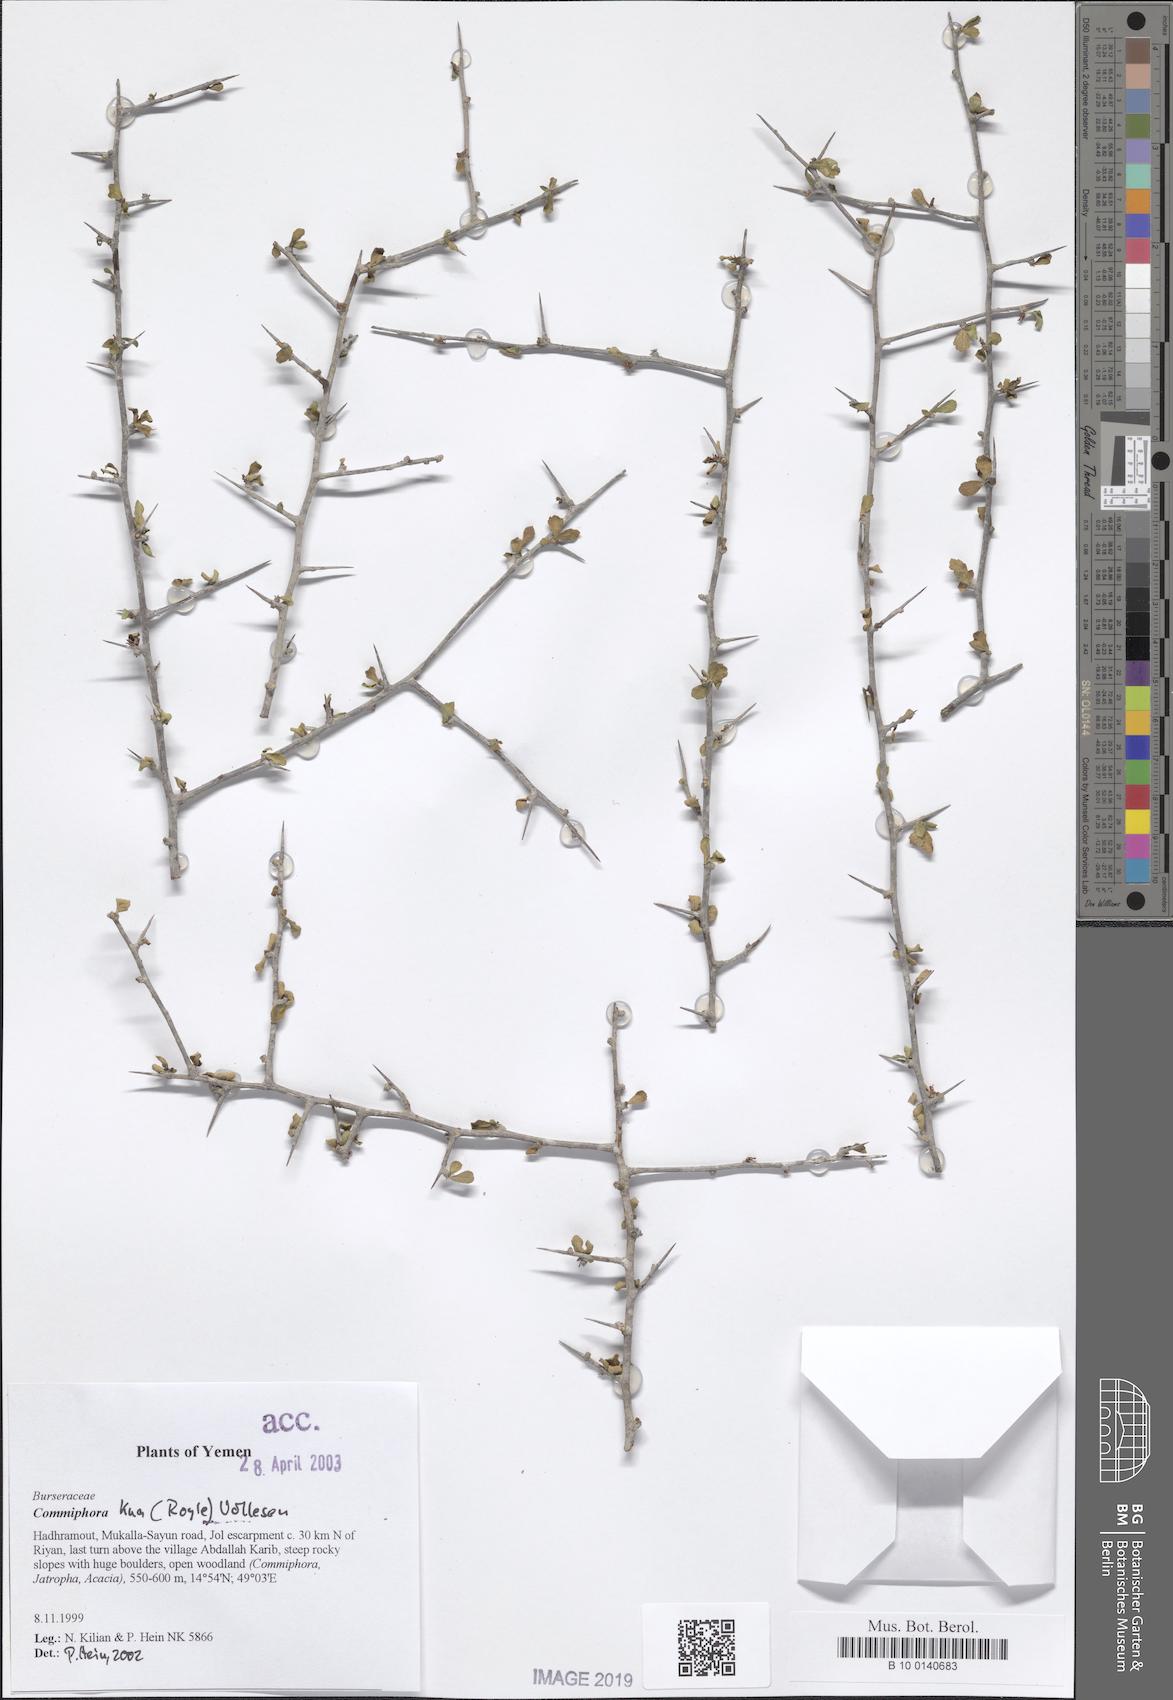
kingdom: Plantae
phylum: Tracheophyta
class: Magnoliopsida
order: Sapindales
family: Burseraceae
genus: Commiphora
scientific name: Commiphora kua
